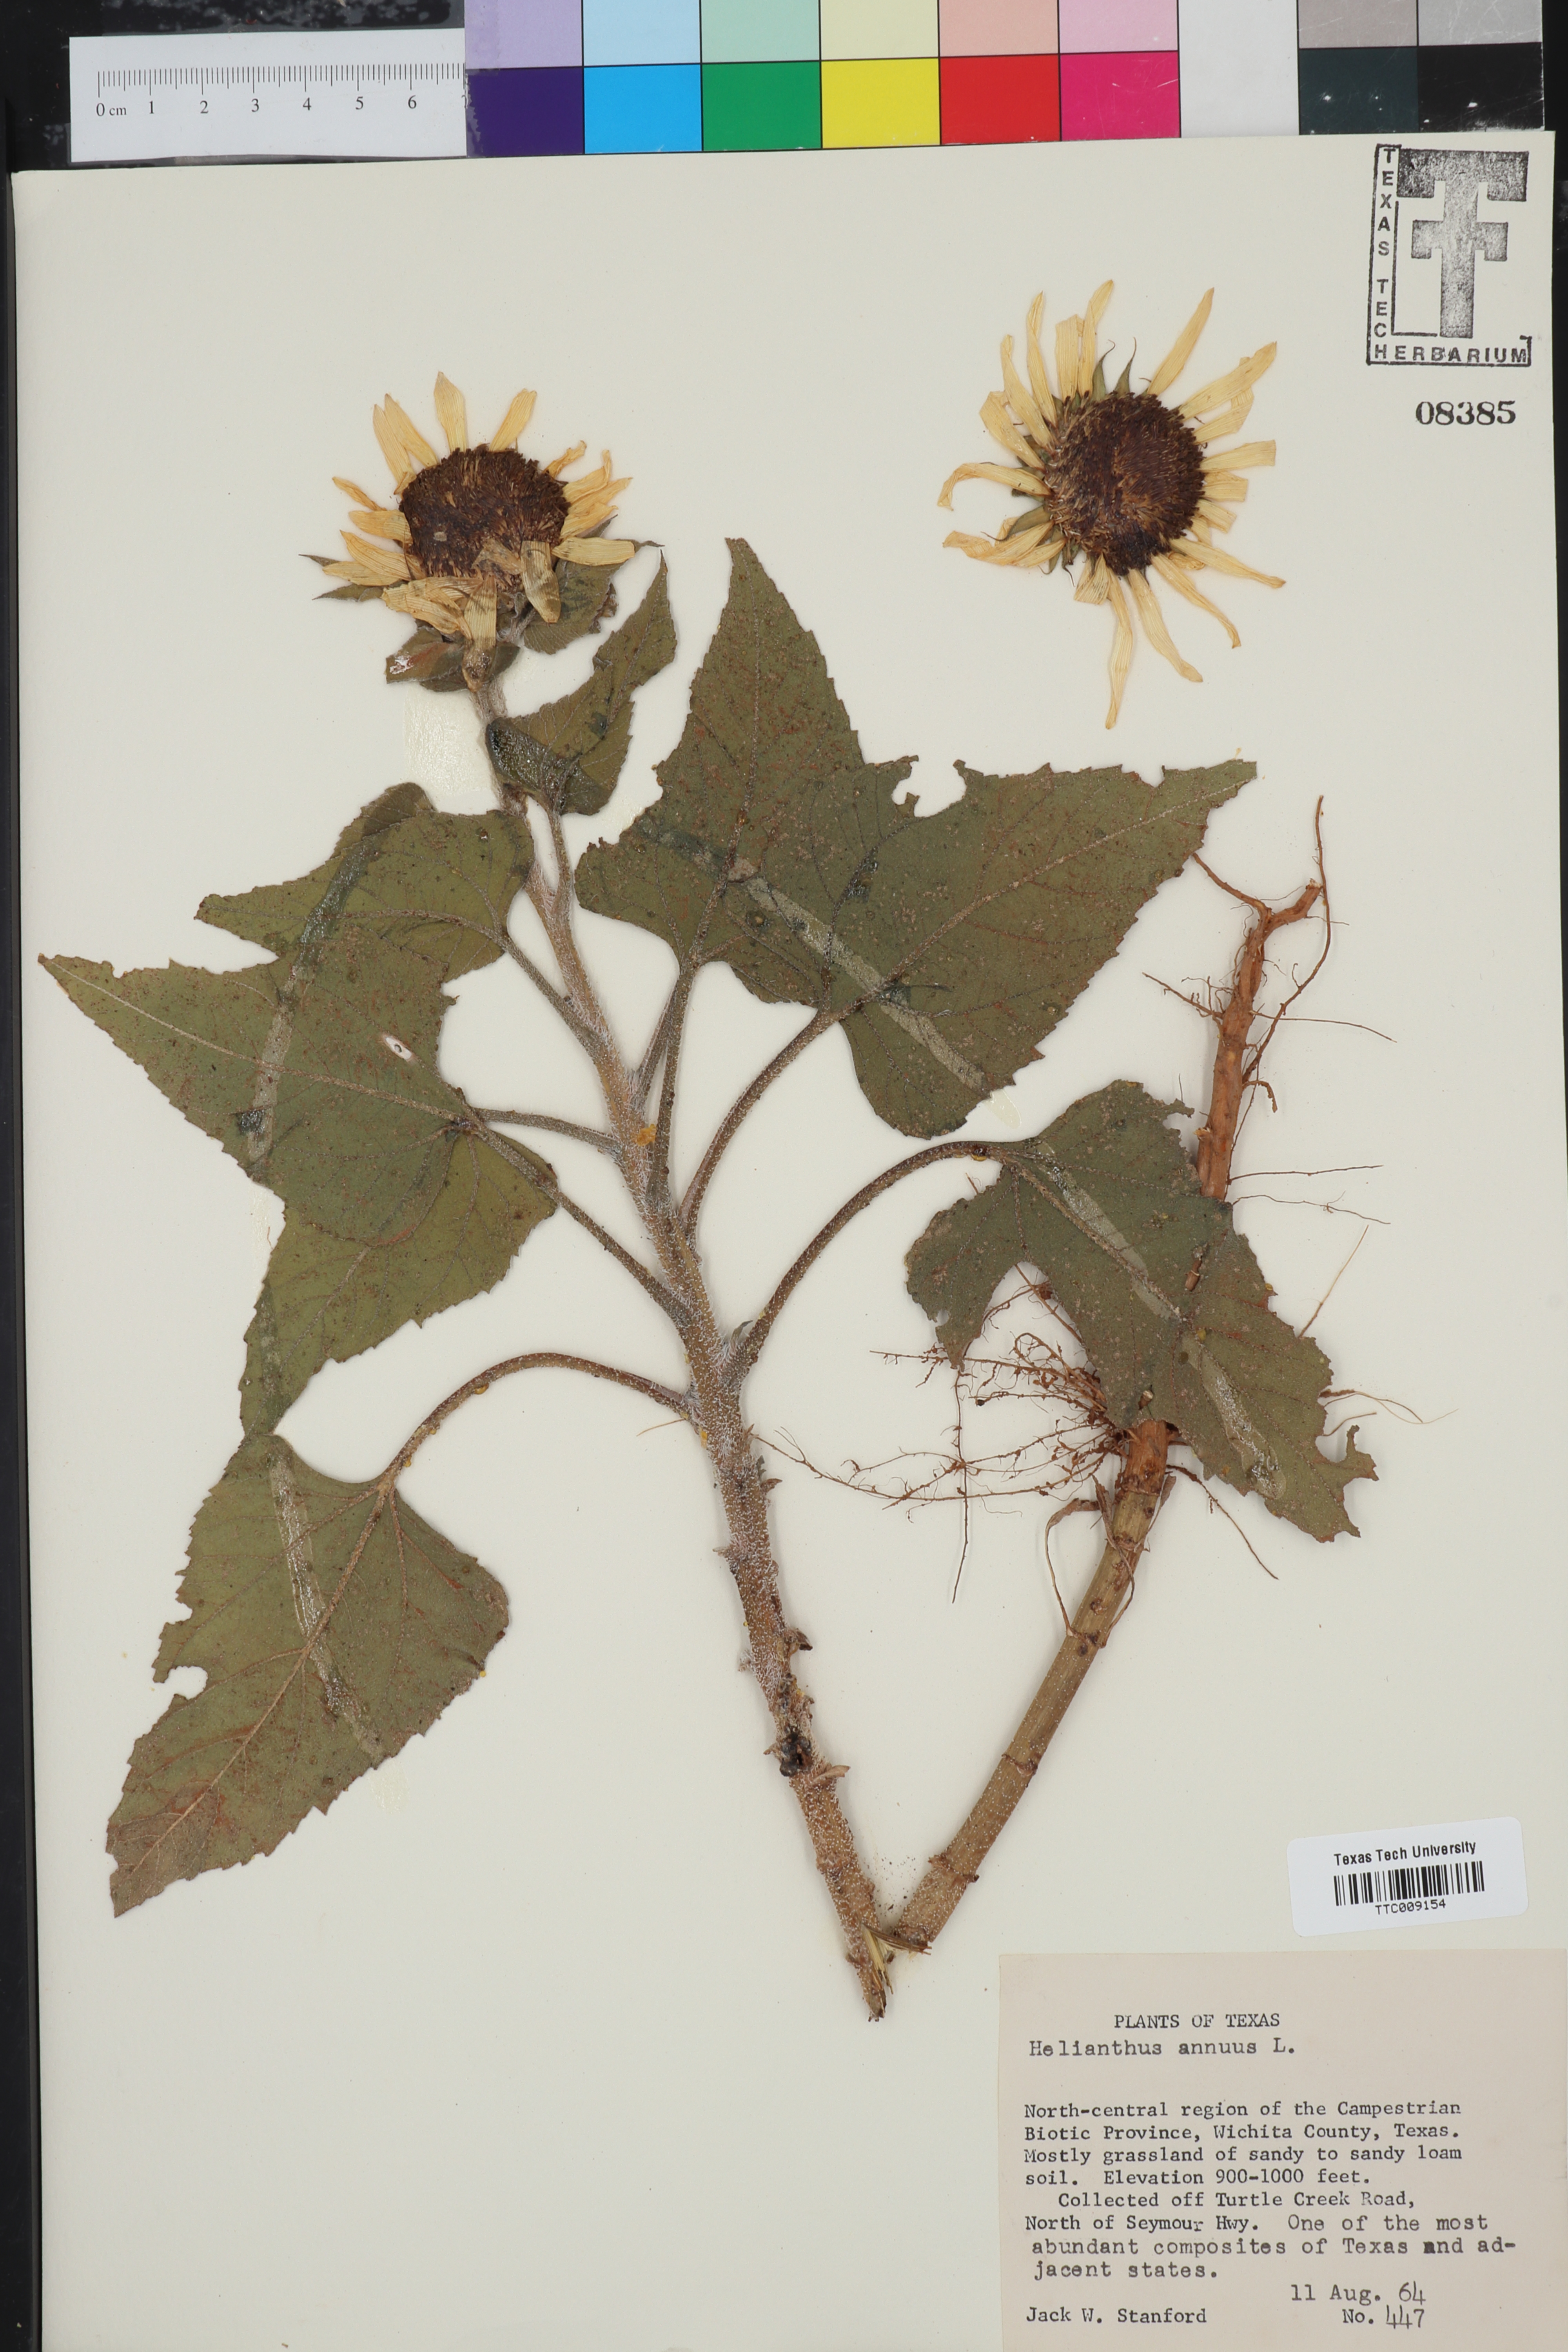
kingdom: Plantae
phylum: Tracheophyta
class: Magnoliopsida
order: Asterales
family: Asteraceae
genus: Helianthus
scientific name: Helianthus annuus
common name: Sunflower
